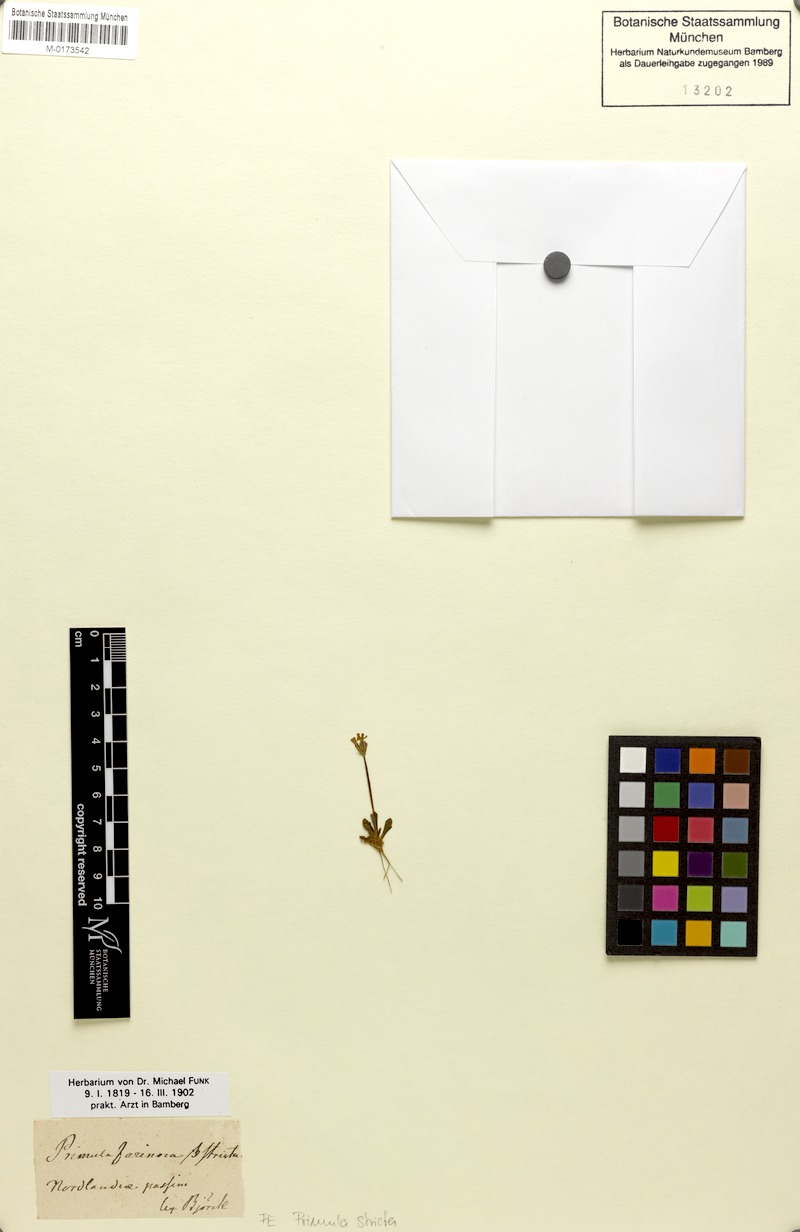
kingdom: Plantae
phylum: Tracheophyta
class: Magnoliopsida
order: Ericales
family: Primulaceae
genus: Primula
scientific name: Primula stricta
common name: Coastal primrose
